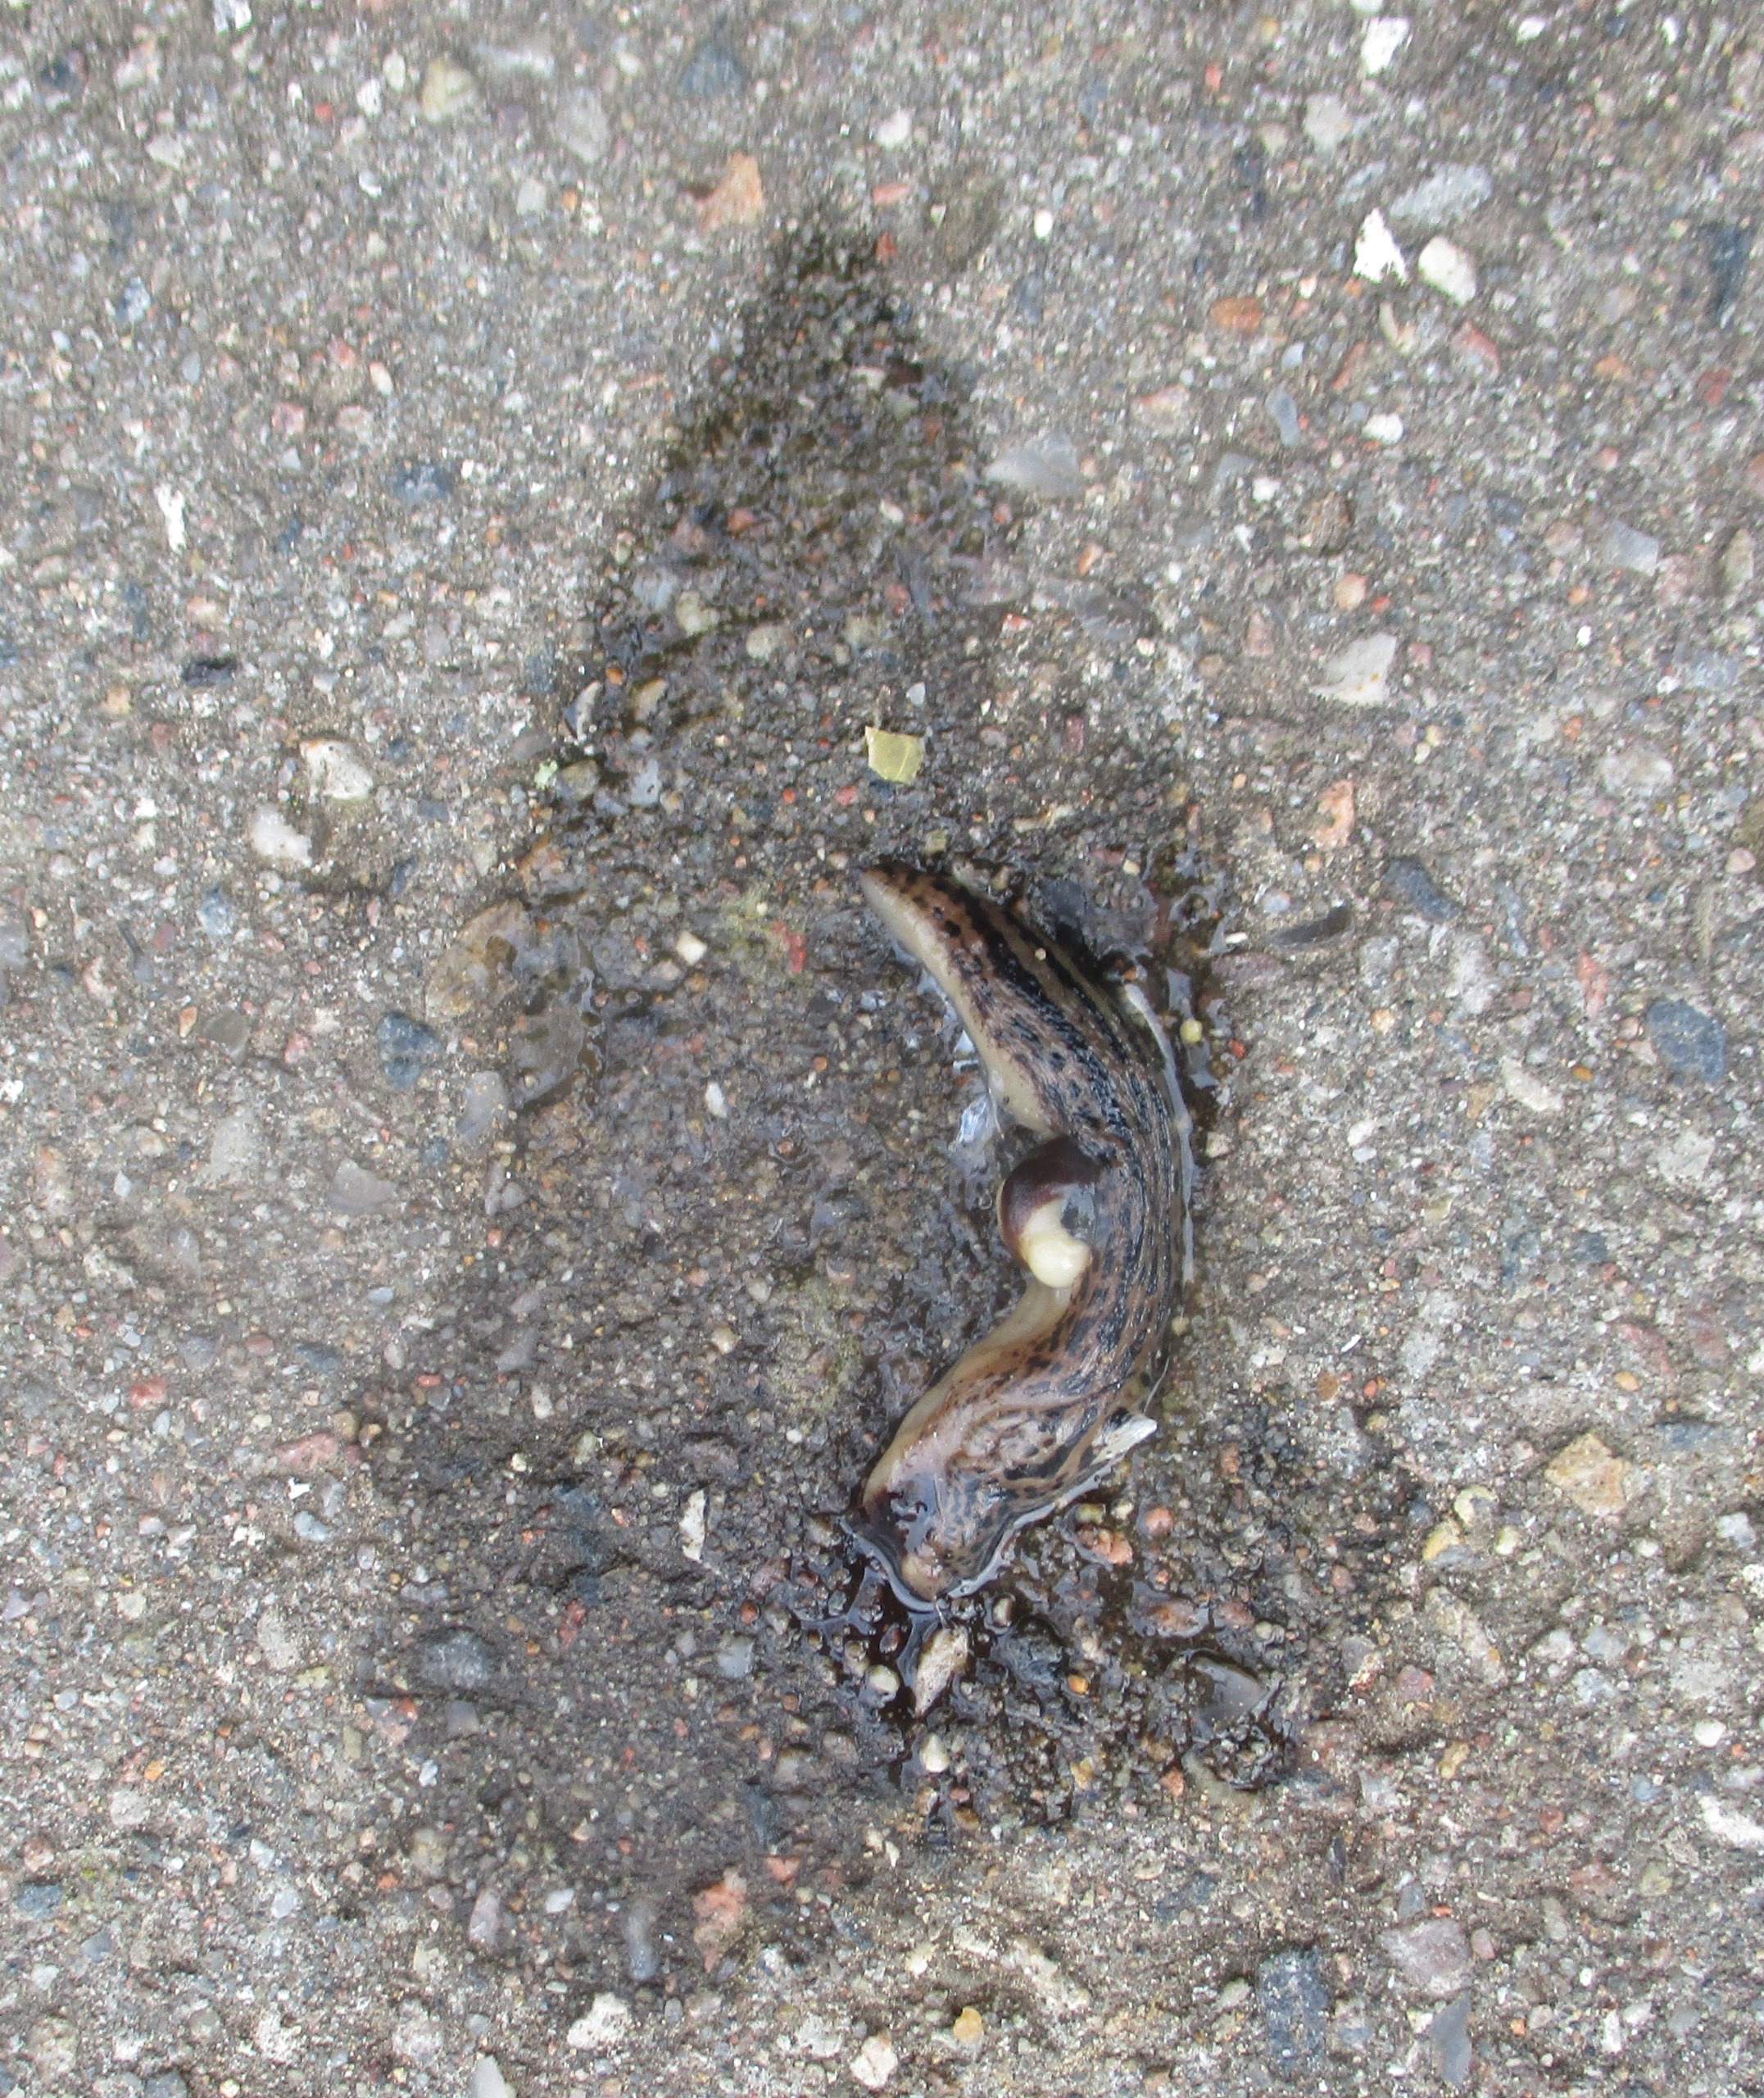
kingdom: Animalia
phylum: Mollusca
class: Gastropoda
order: Stylommatophora
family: Limacidae
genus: Limax
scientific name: Limax maximus
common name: Pantersnegl
